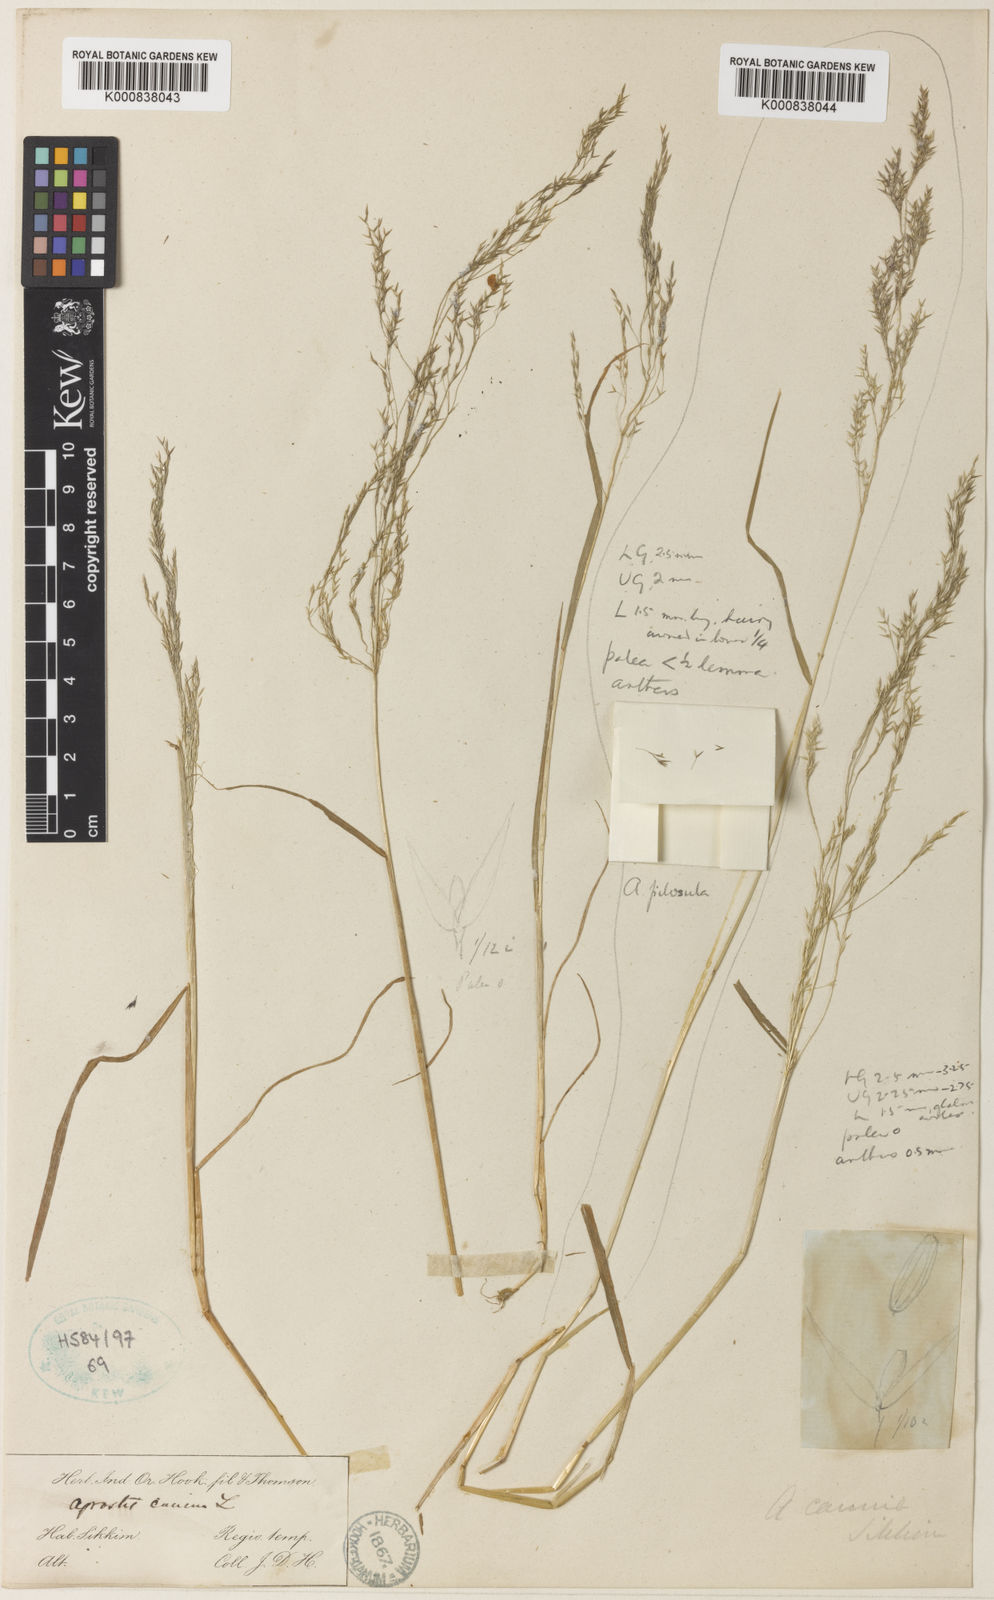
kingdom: Plantae
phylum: Tracheophyta
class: Liliopsida
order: Poales
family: Poaceae
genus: Agrostis
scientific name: Agrostis nervosa
